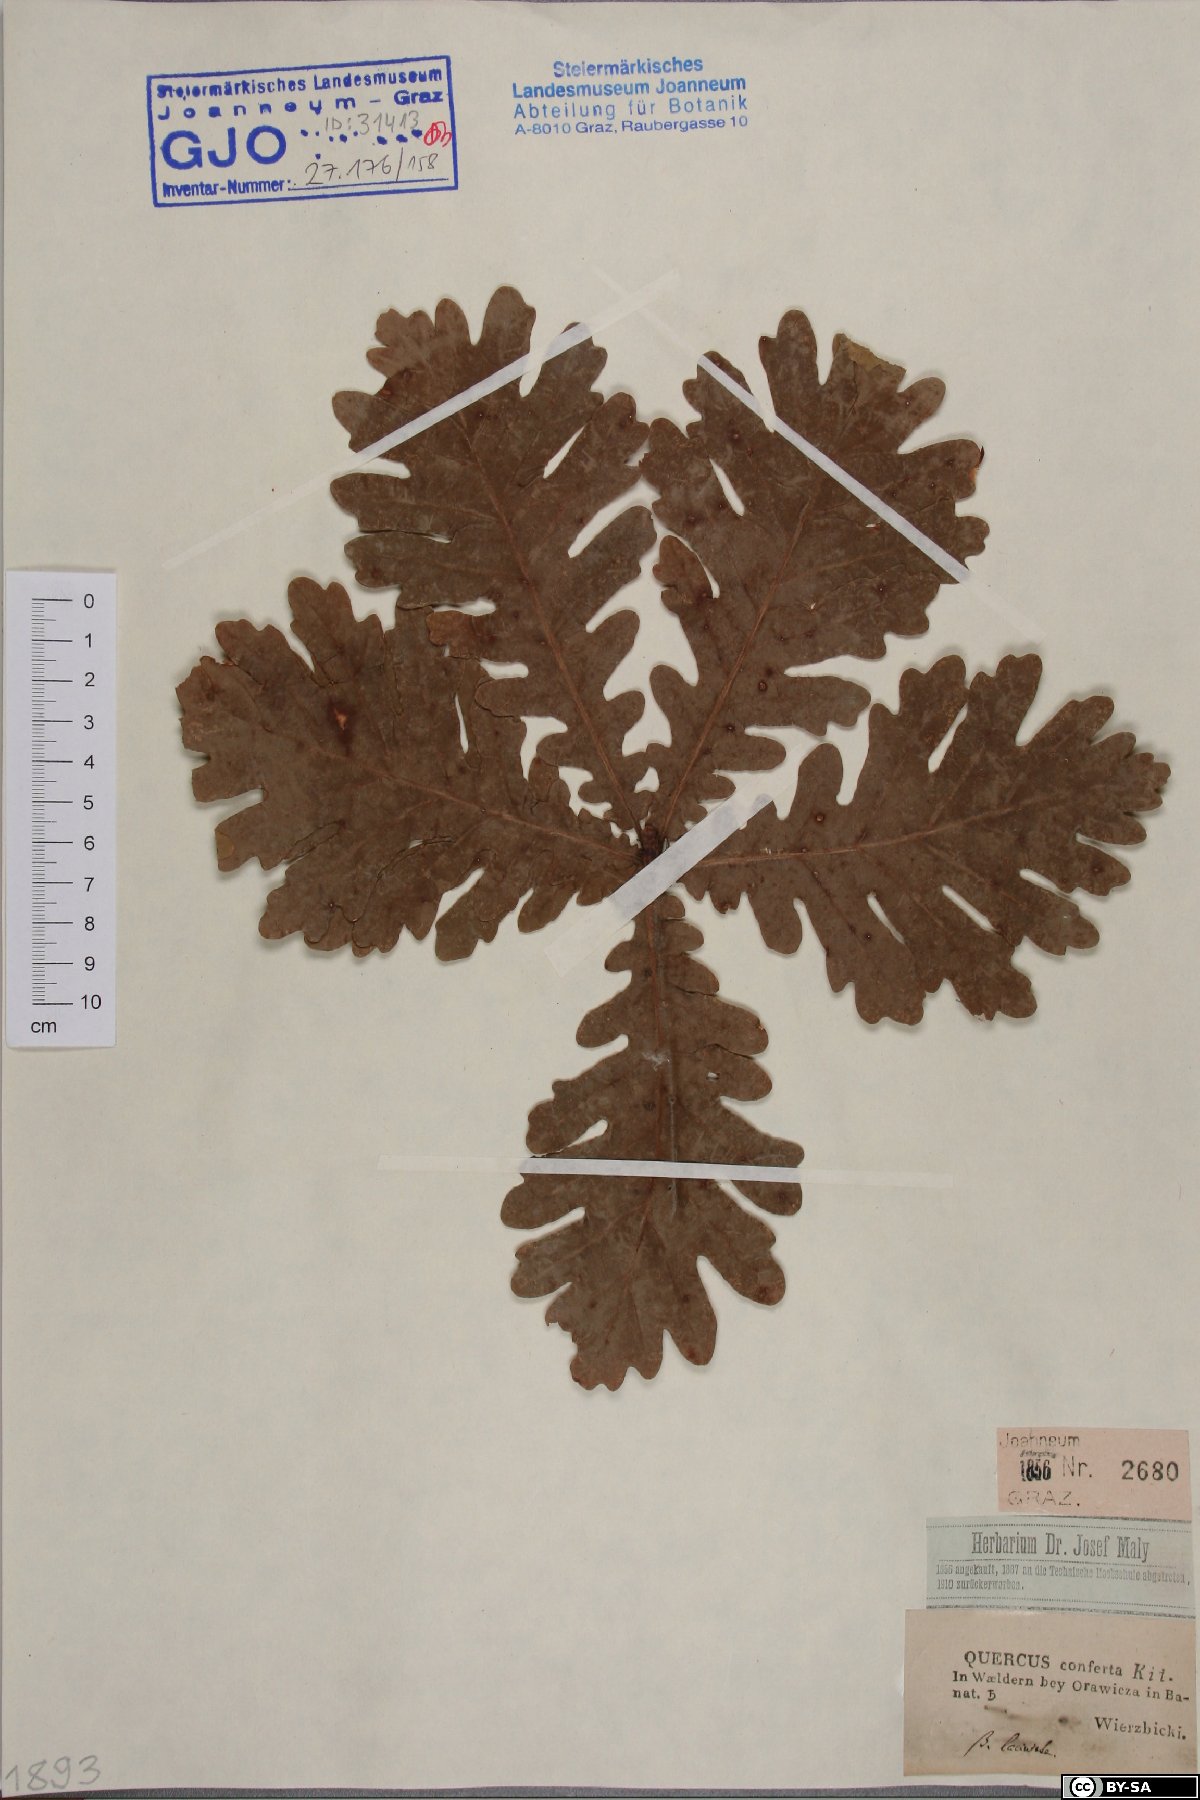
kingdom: Plantae
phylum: Tracheophyta
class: Magnoliopsida
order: Fagales
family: Fagaceae
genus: Quercus
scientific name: Quercus conferta
